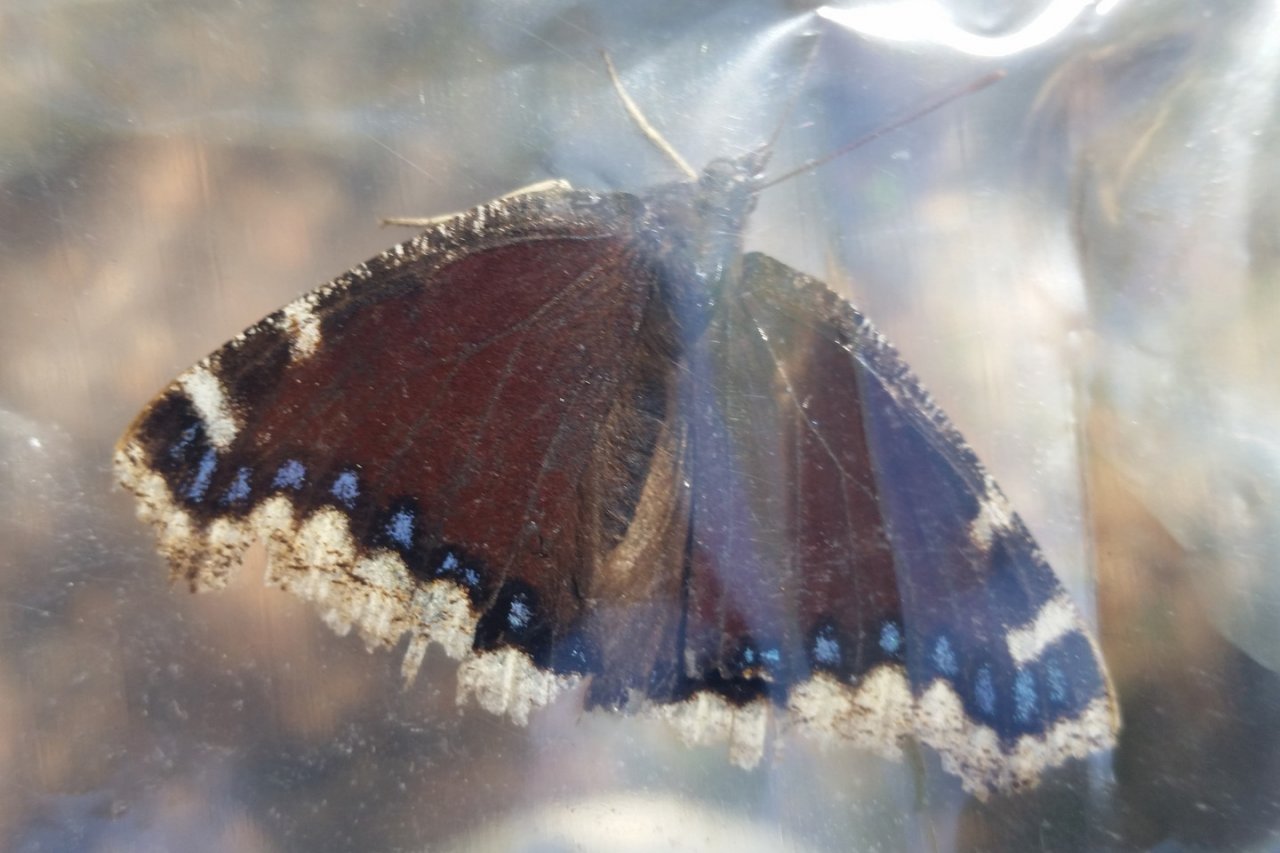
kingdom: Animalia
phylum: Arthropoda
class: Insecta
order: Lepidoptera
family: Nymphalidae
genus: Nymphalis
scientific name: Nymphalis antiopa
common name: Mourning Cloak
